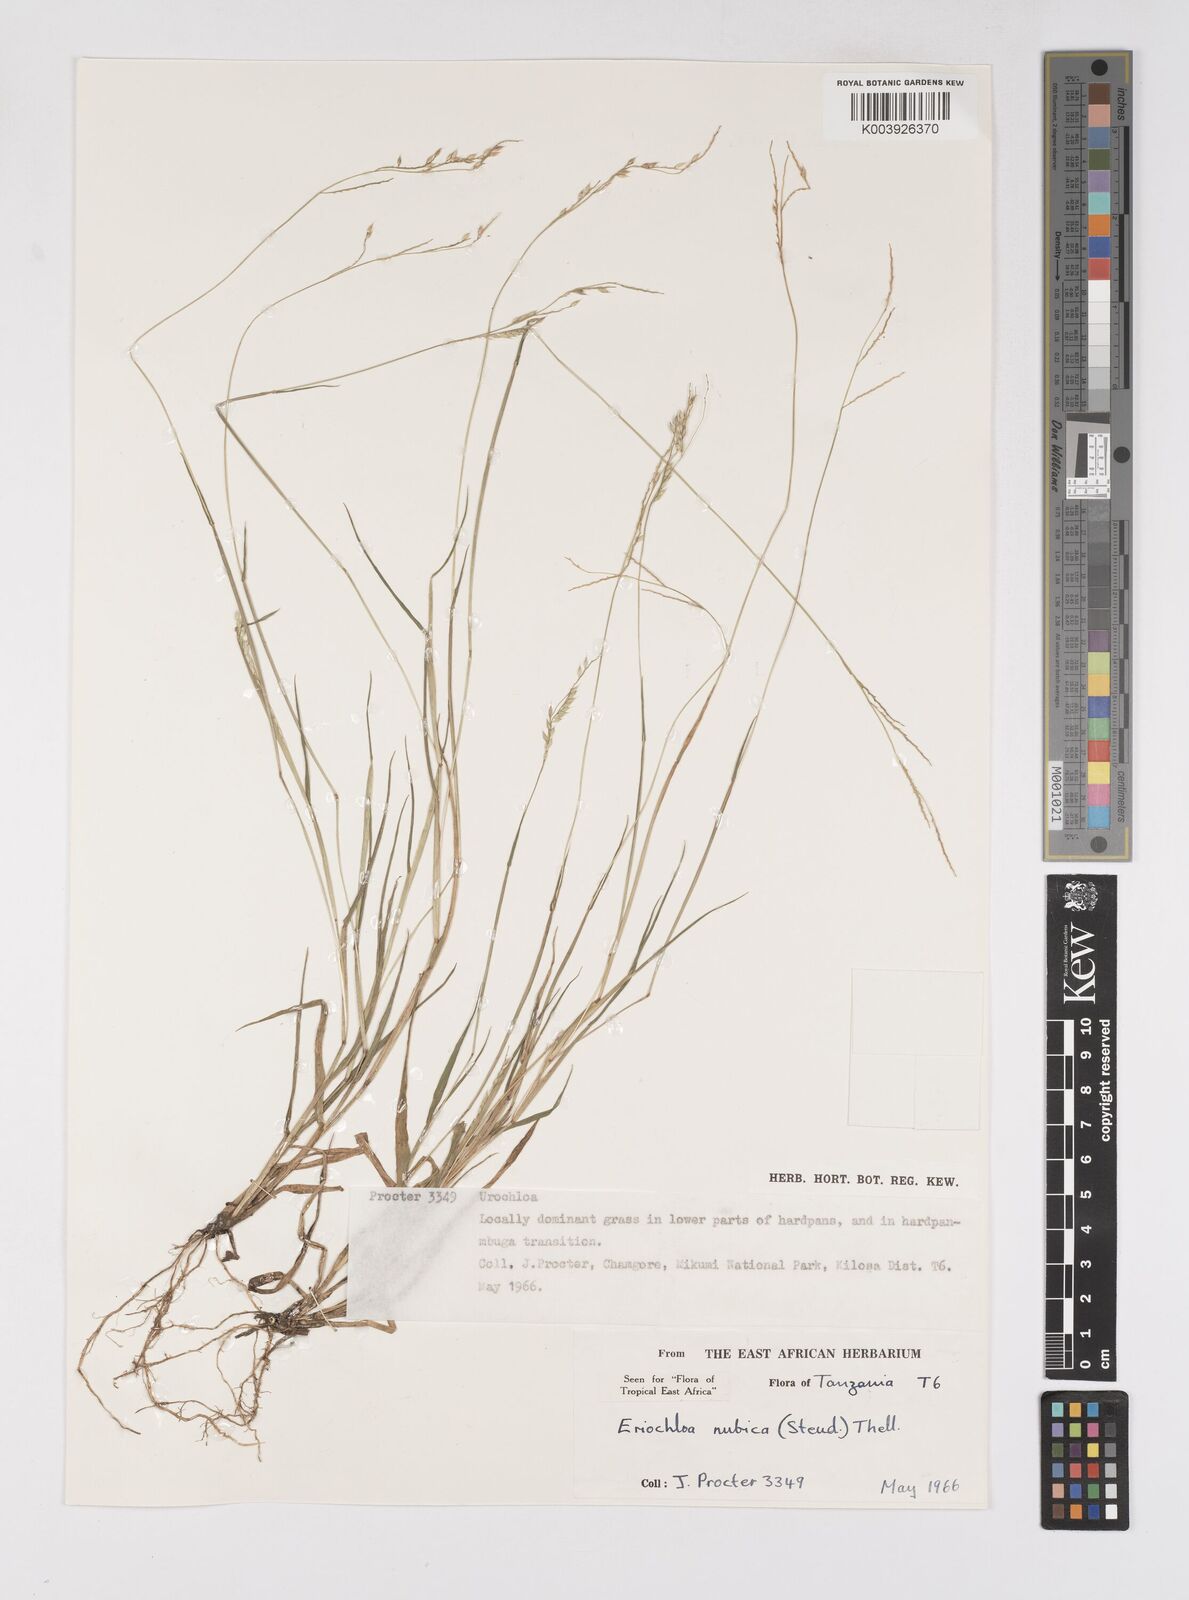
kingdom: Plantae
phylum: Tracheophyta
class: Liliopsida
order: Poales
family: Poaceae
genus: Eriochloa
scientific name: Eriochloa barbatus
